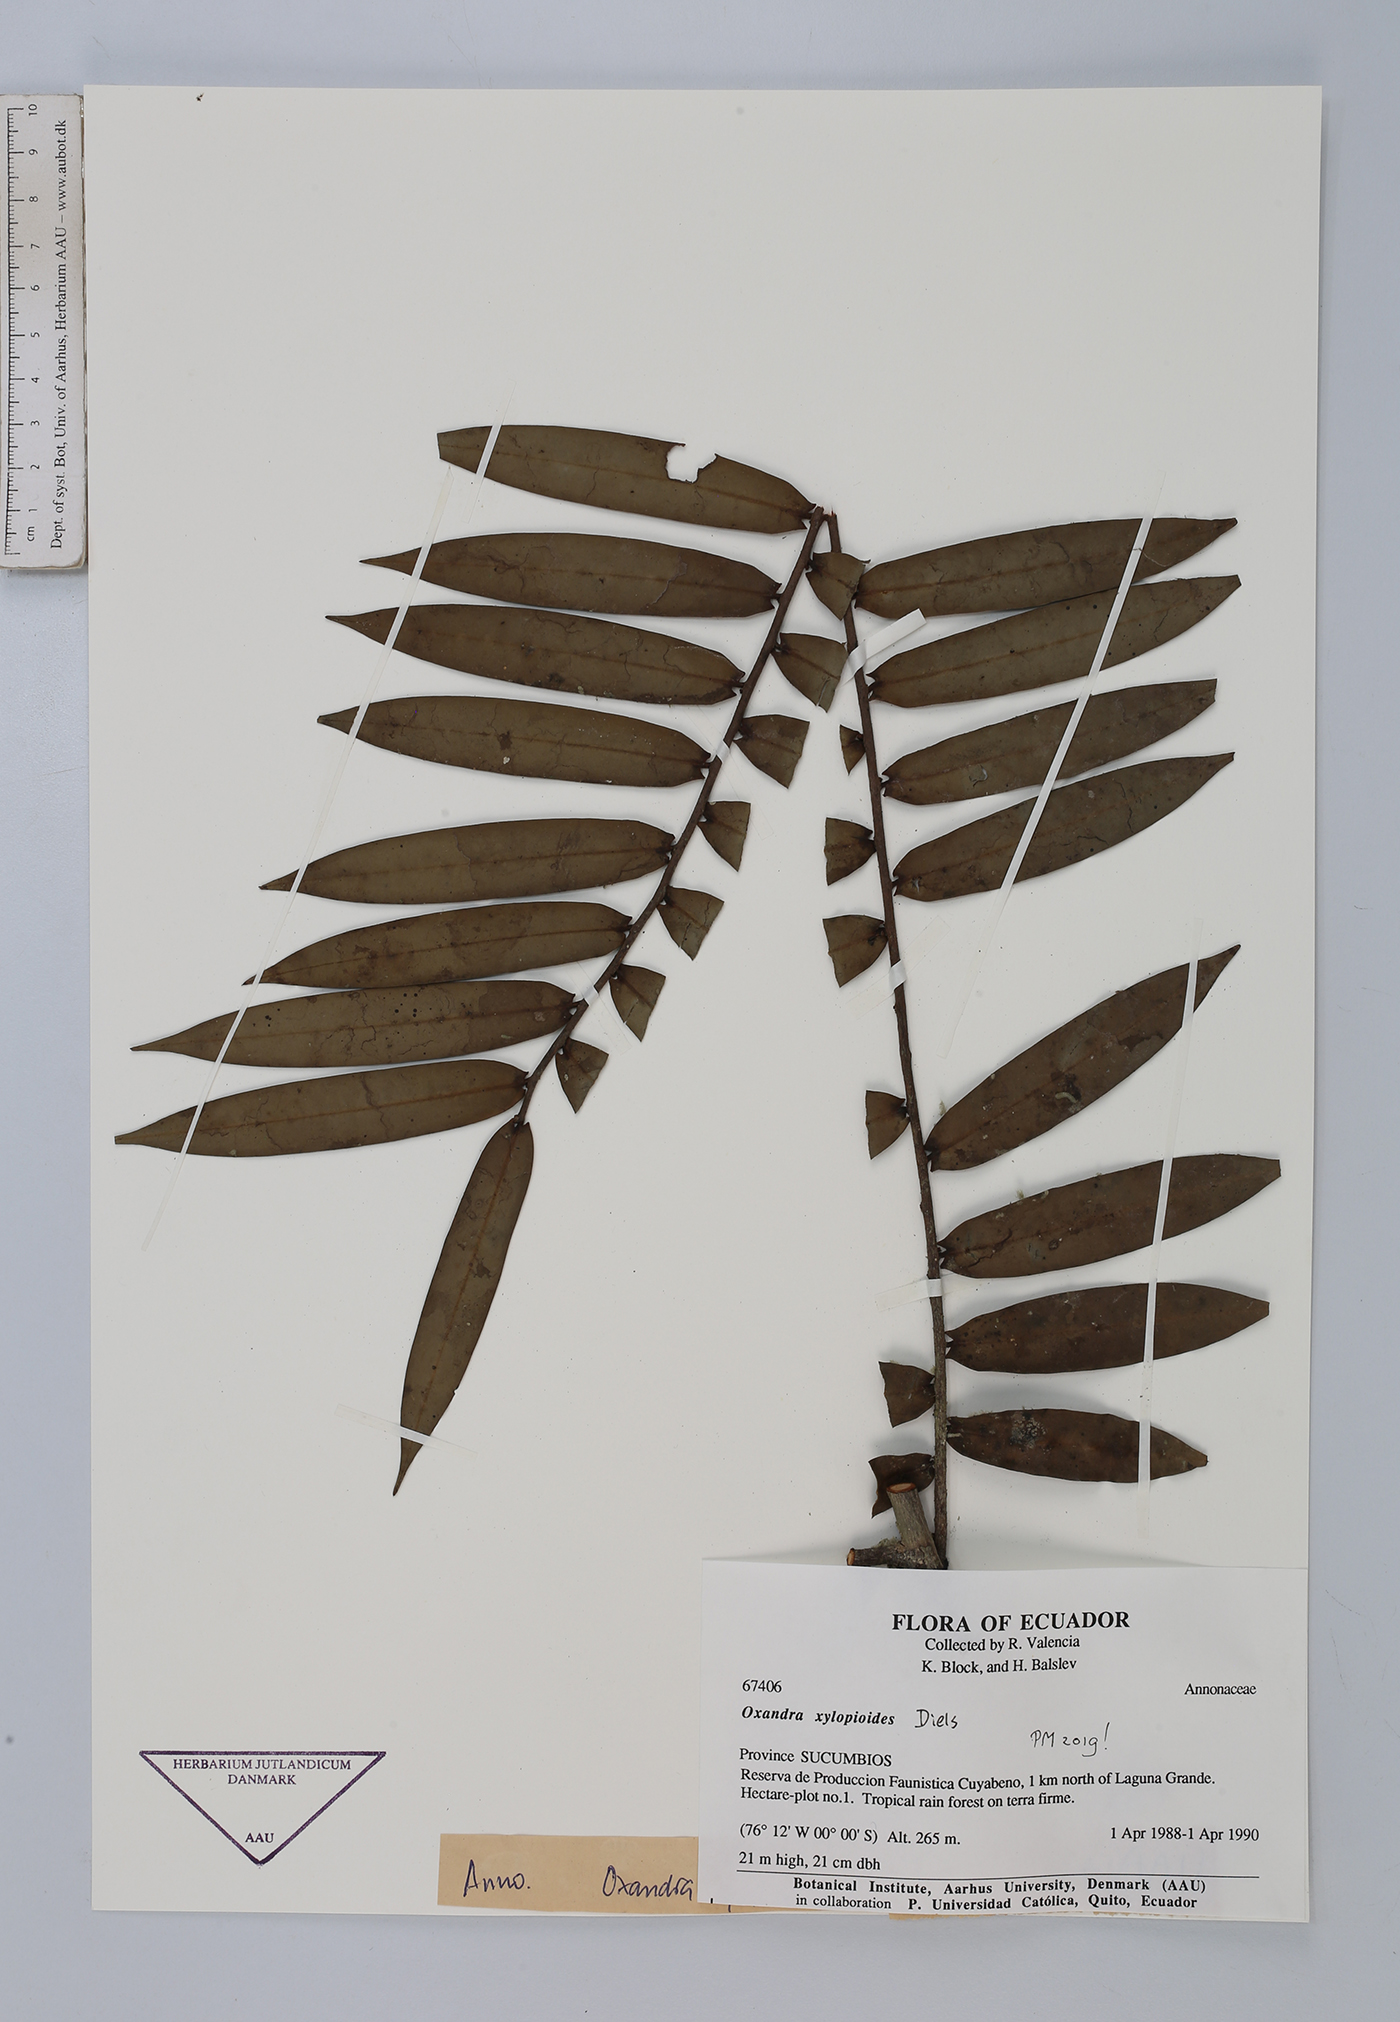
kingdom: Plantae
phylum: Tracheophyta
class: Magnoliopsida
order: Magnoliales
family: Annonaceae
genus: Oxandra
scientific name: Oxandra xylopioides
